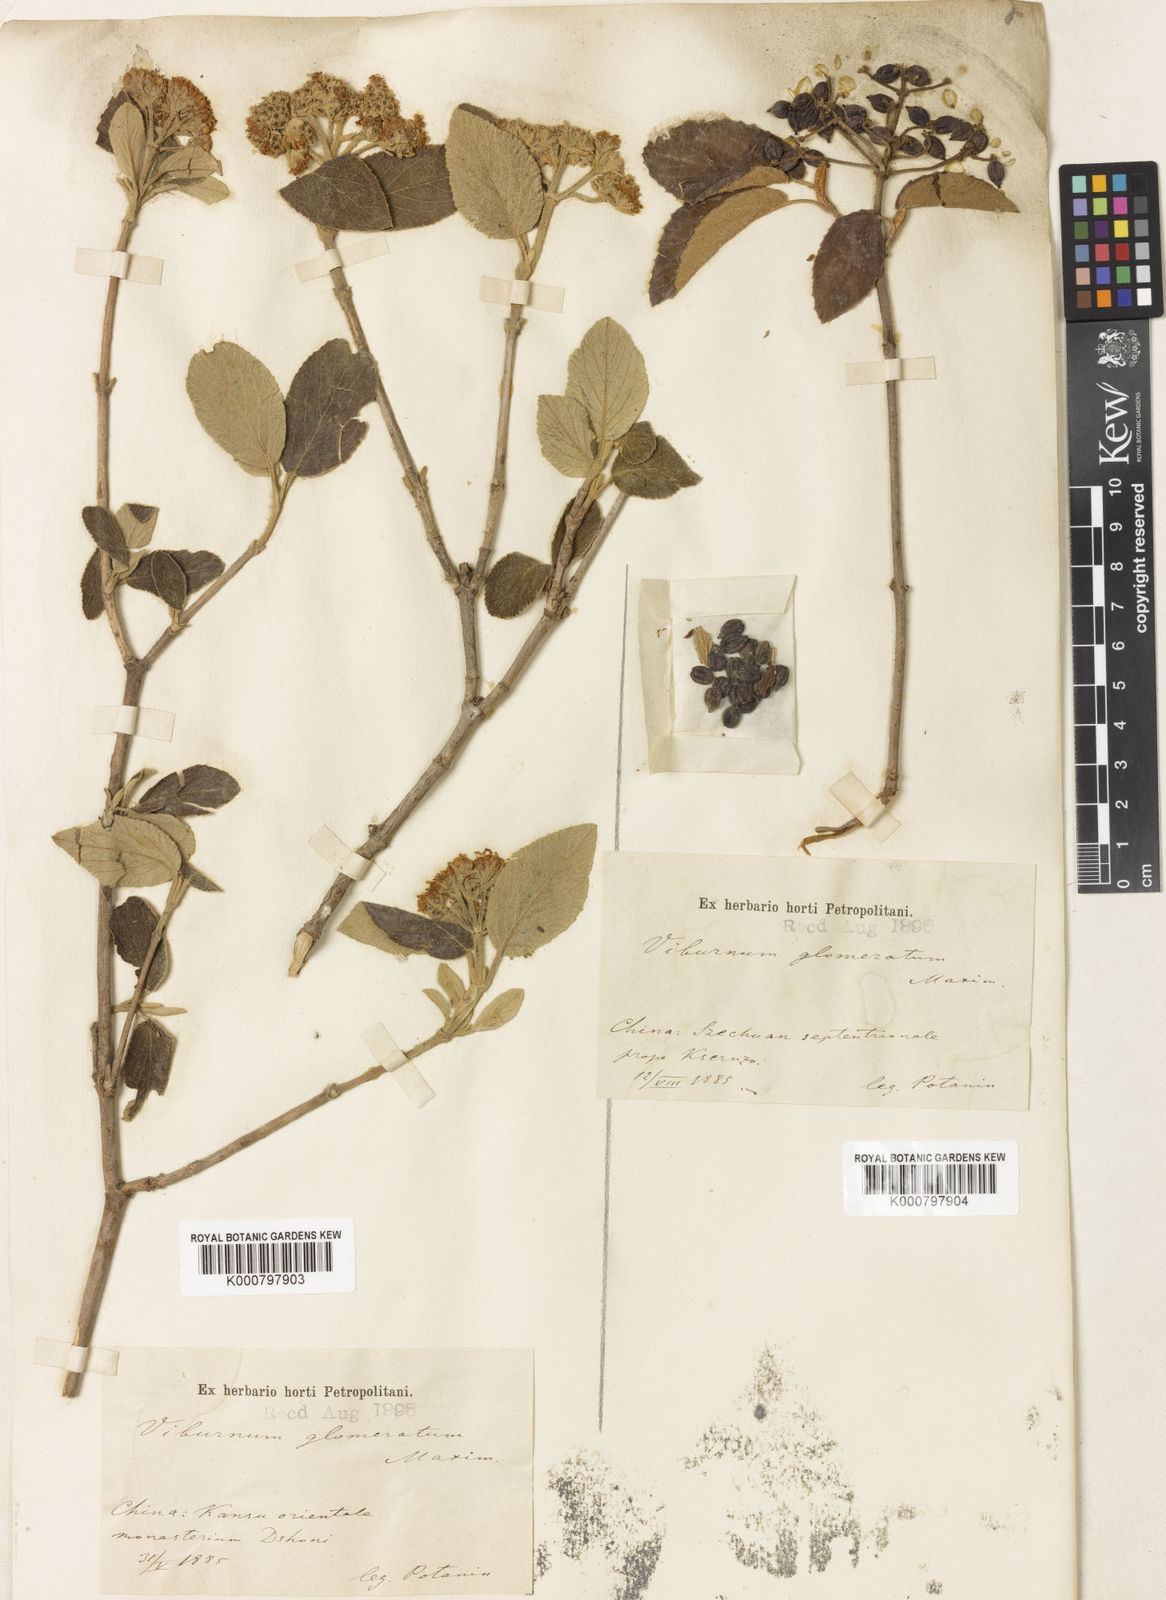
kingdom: Plantae
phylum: Tracheophyta
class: Magnoliopsida
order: Dipsacales
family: Viburnaceae
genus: Viburnum
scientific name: Viburnum glomeratum
